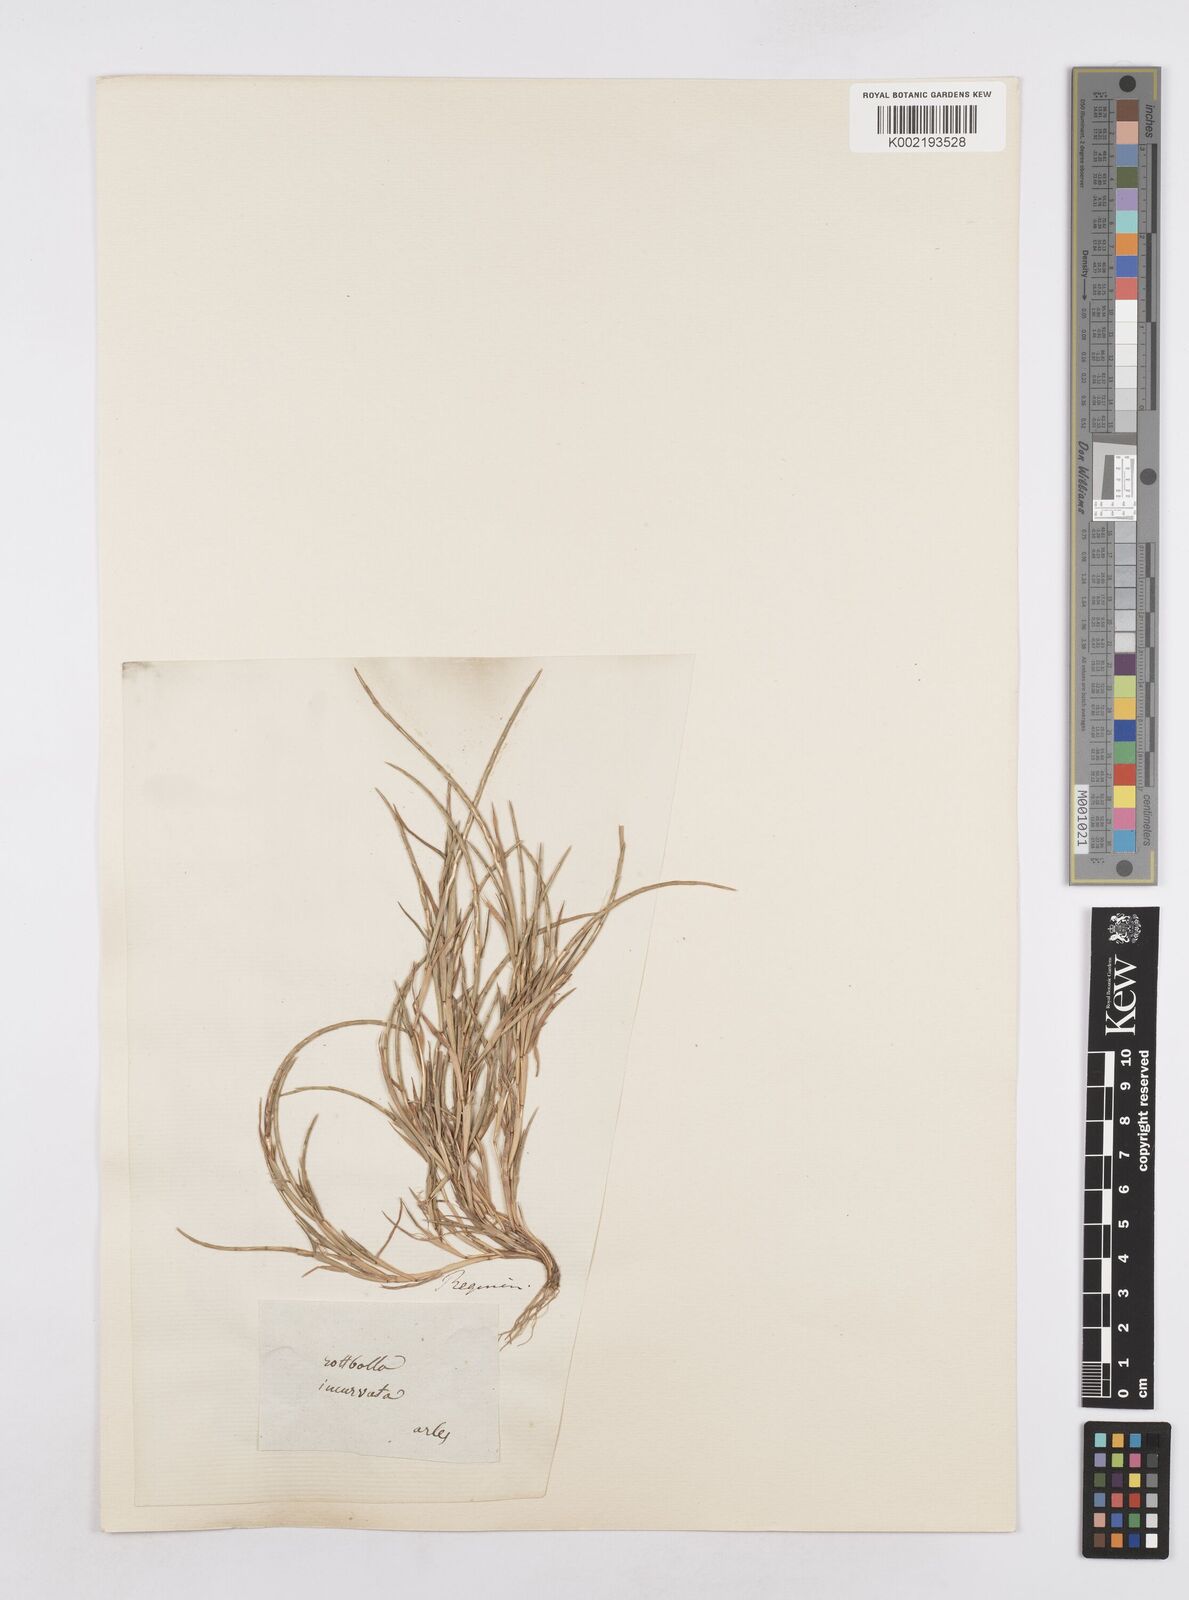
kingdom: Plantae
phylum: Tracheophyta
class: Liliopsida
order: Poales
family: Poaceae
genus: Parapholis
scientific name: Parapholis incurva
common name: Curved sicklegrass
